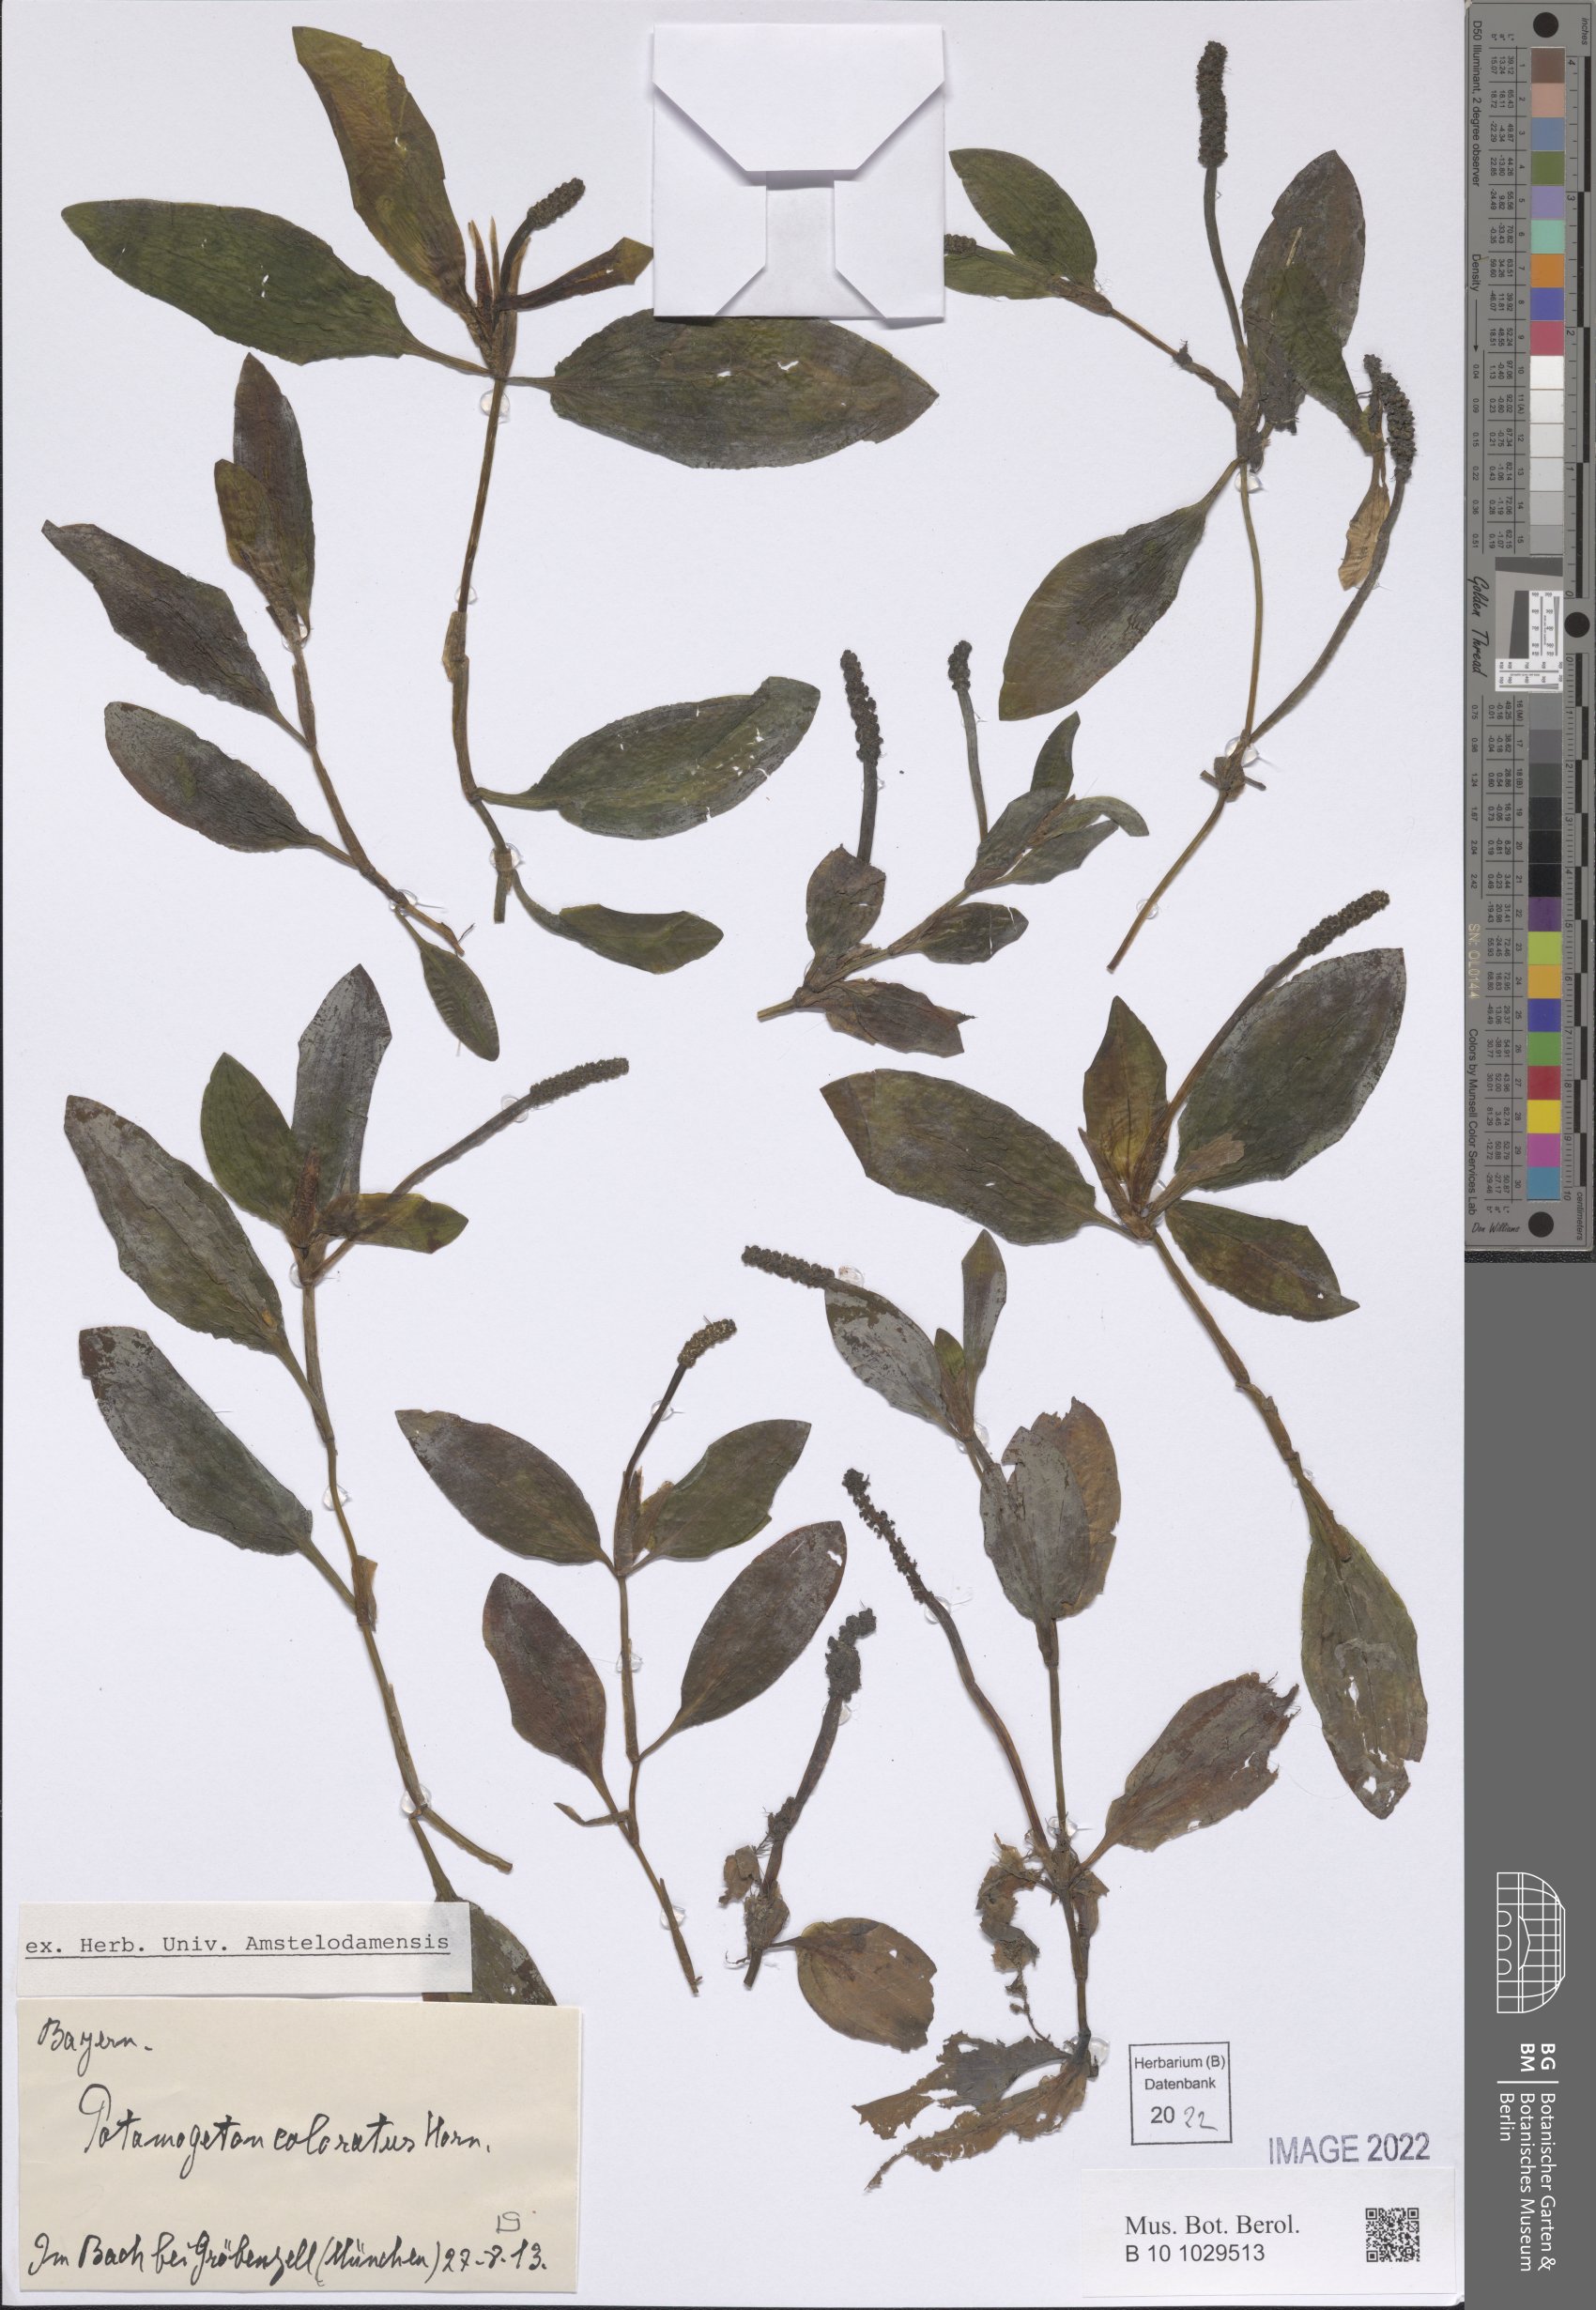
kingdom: Plantae
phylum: Tracheophyta
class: Liliopsida
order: Alismatales
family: Potamogetonaceae
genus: Potamogeton
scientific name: Potamogeton coloratus
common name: Fen pondweed
